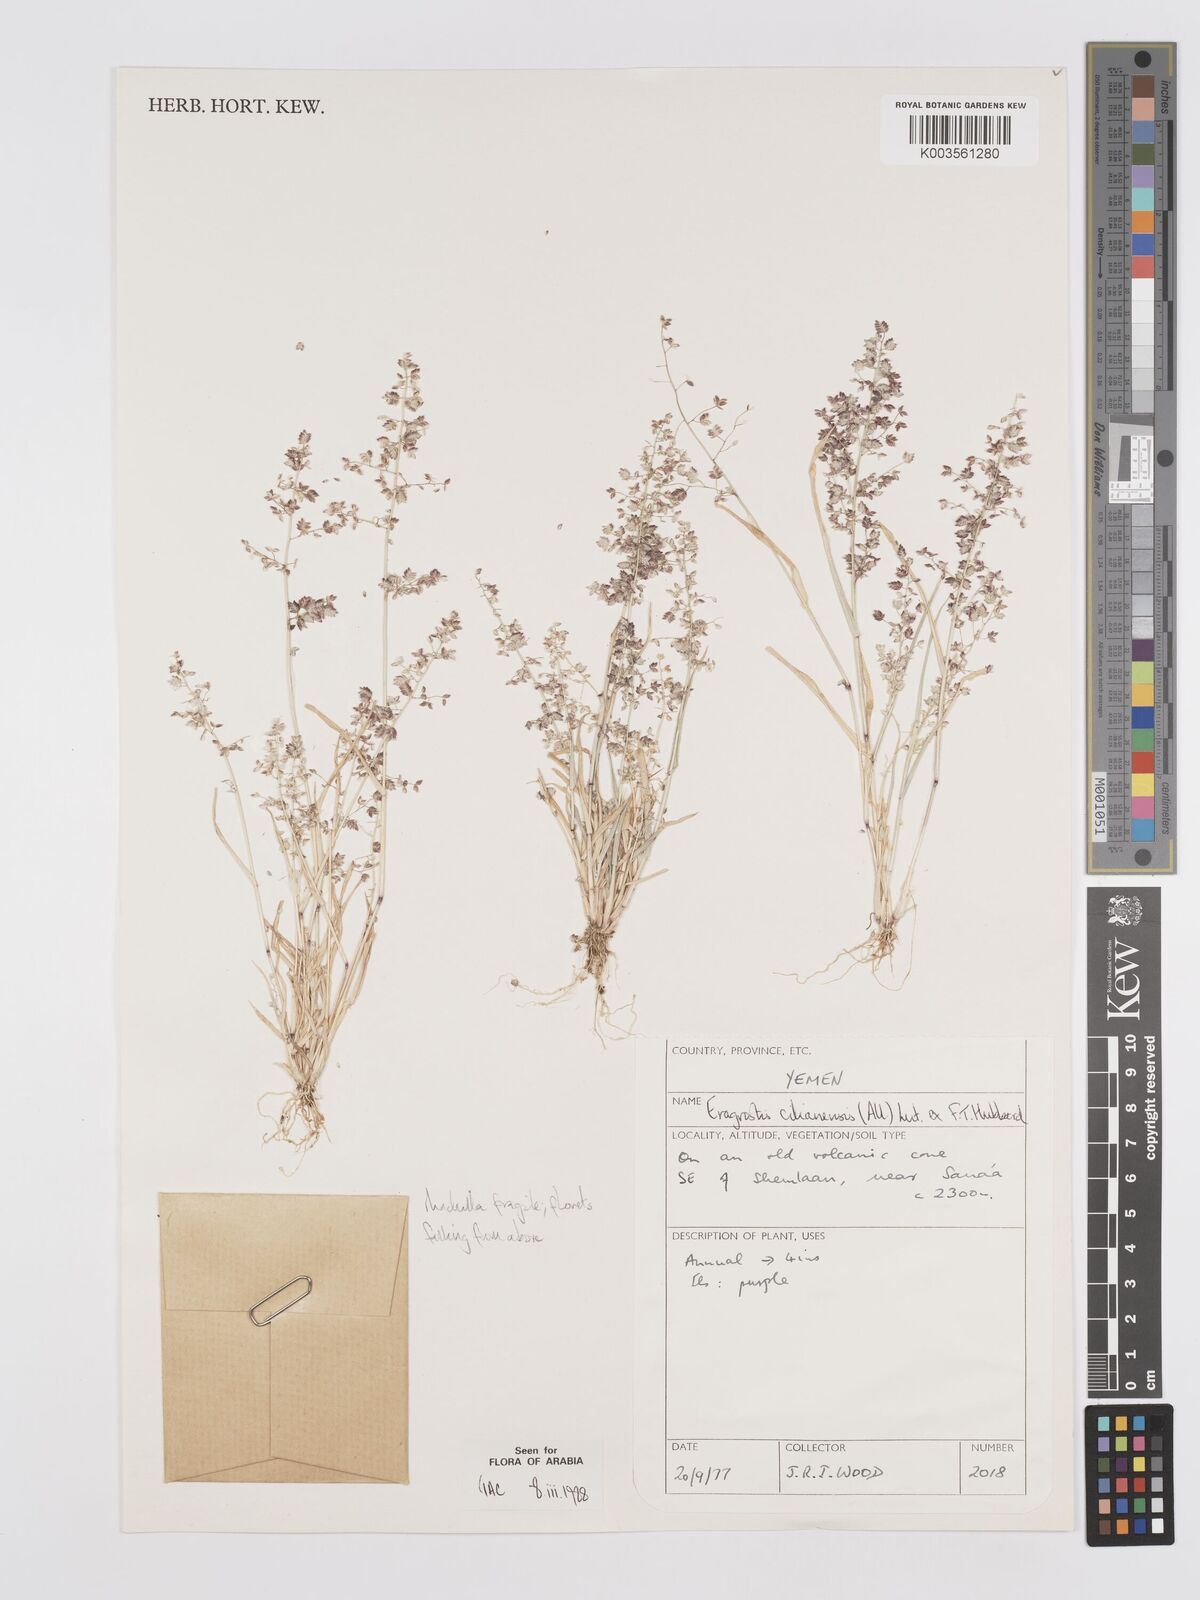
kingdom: Plantae
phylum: Tracheophyta
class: Liliopsida
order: Poales
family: Poaceae
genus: Eragrostis
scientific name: Eragrostis cilianensis
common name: Stinkgrass
